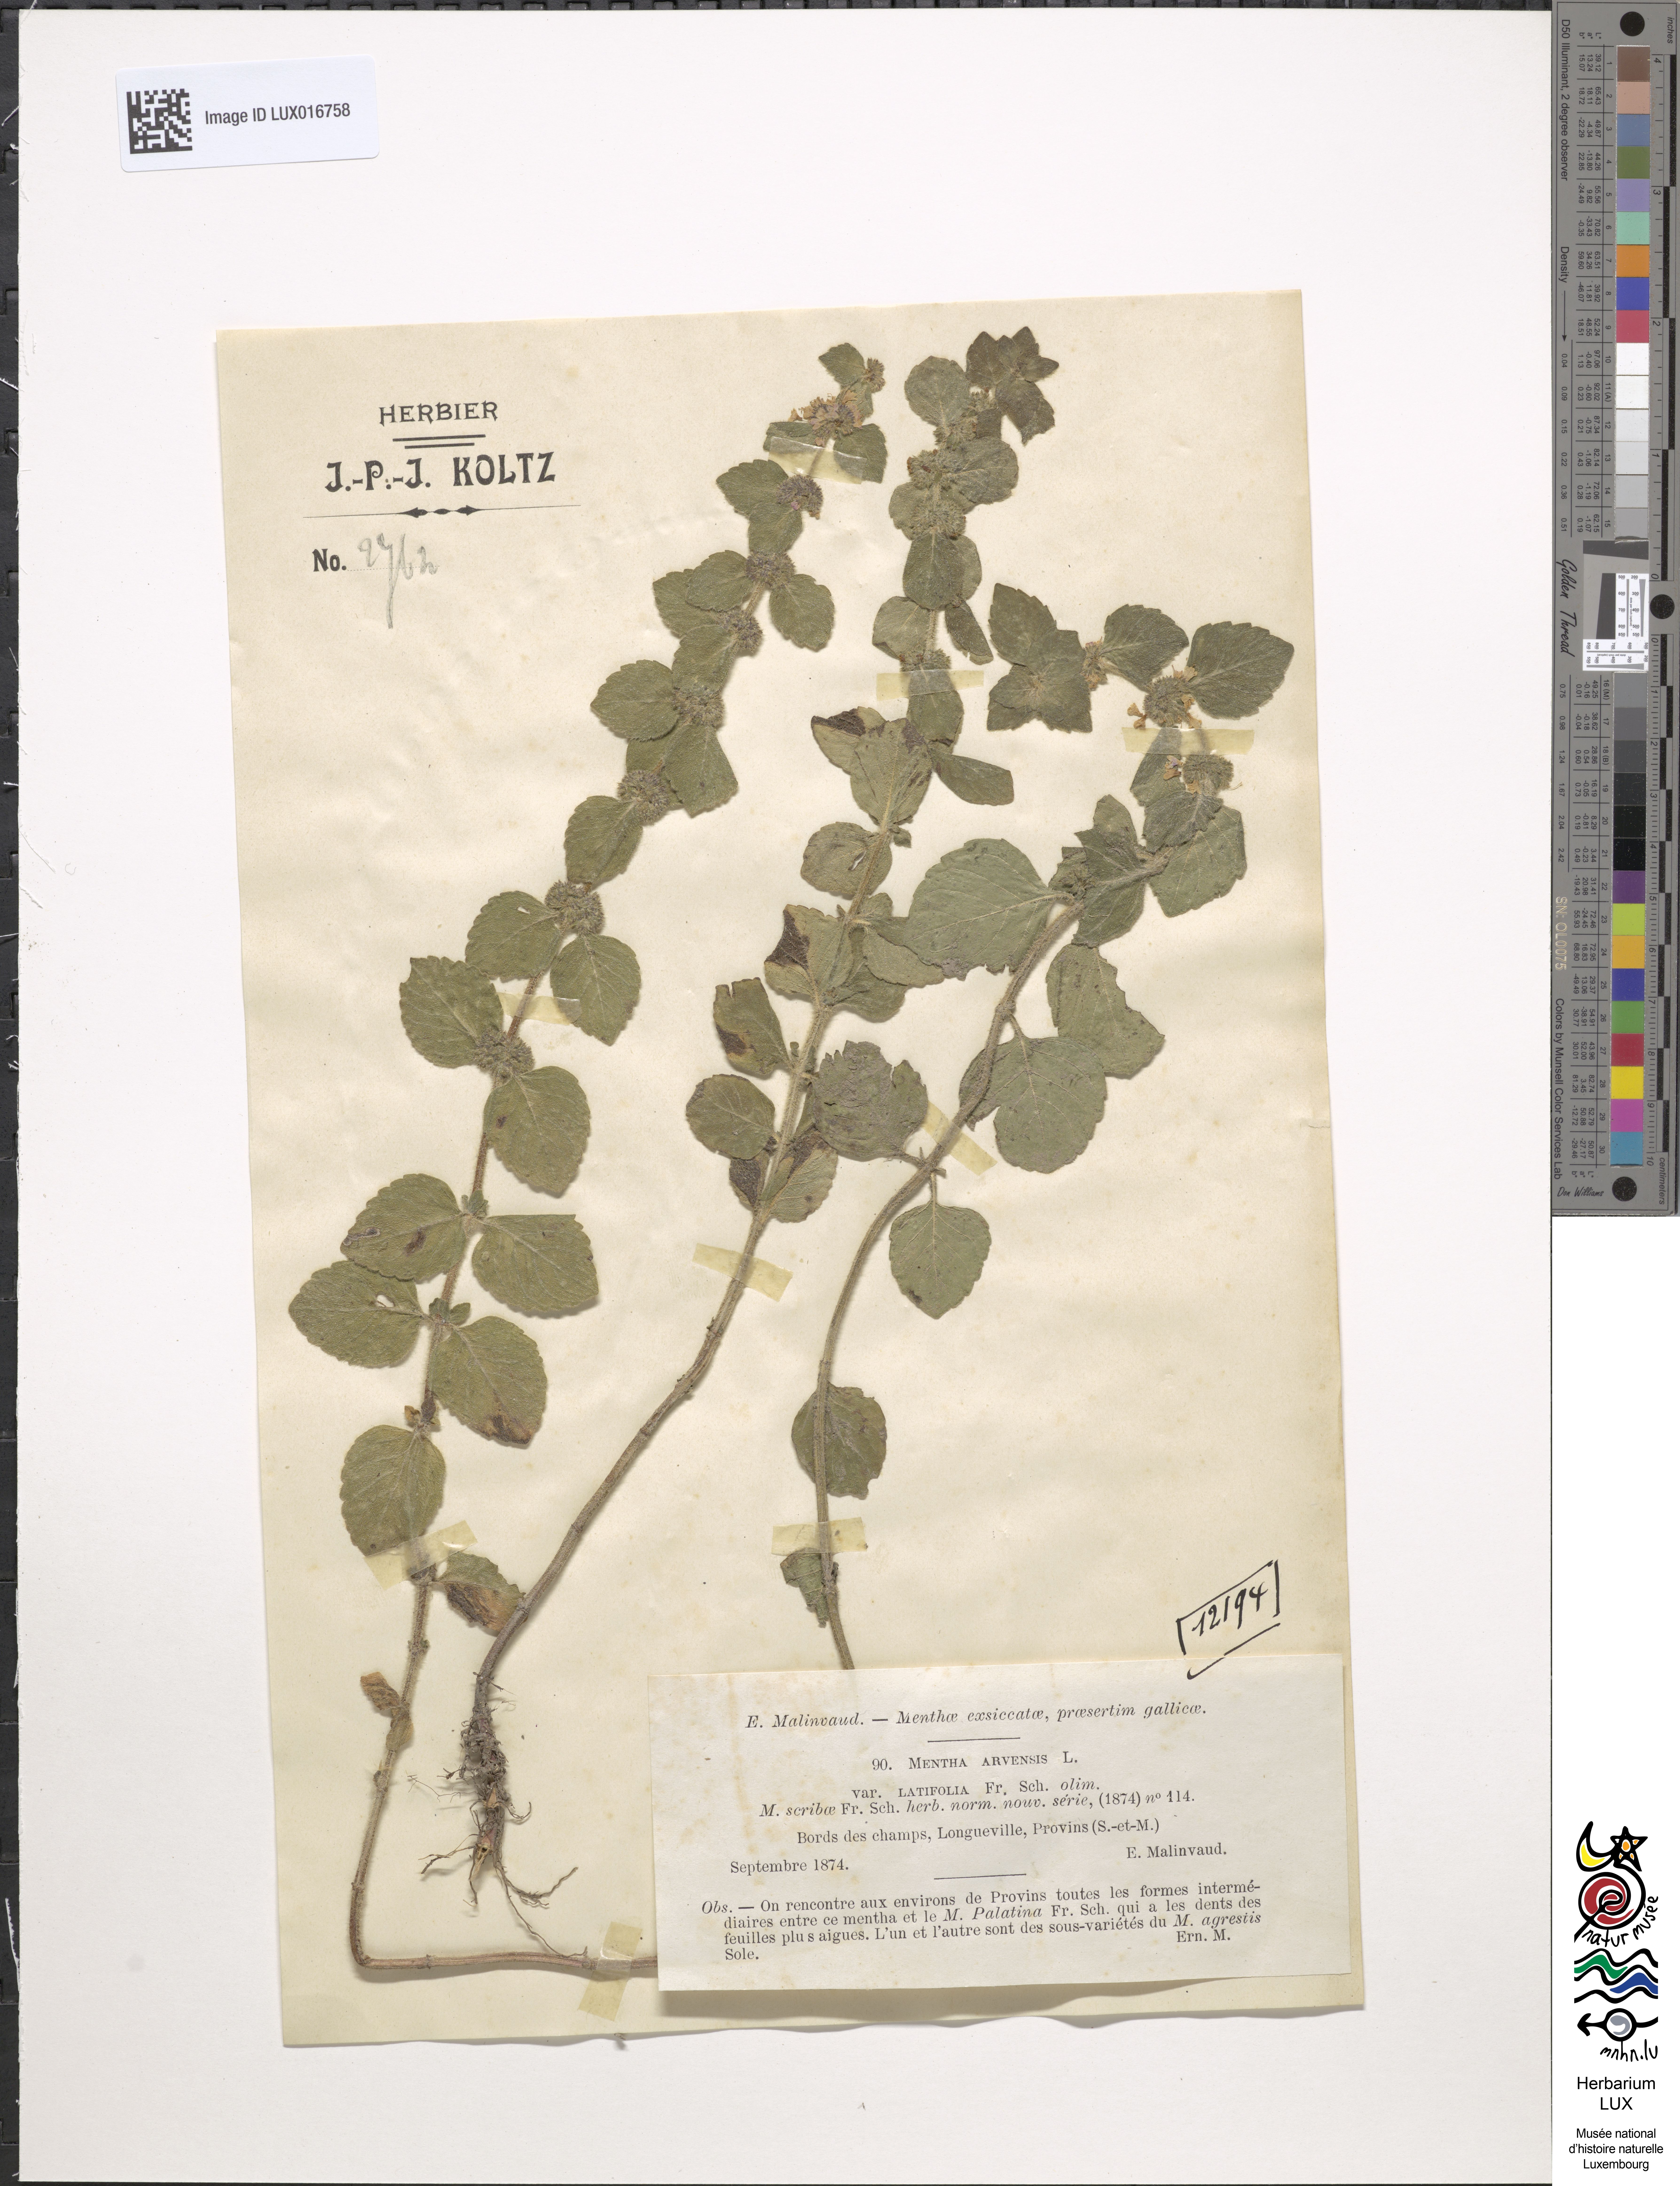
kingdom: Plantae
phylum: Tracheophyta
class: Magnoliopsida
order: Lamiales
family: Lamiaceae
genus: Mentha
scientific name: Mentha arvensis
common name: Corn mint
